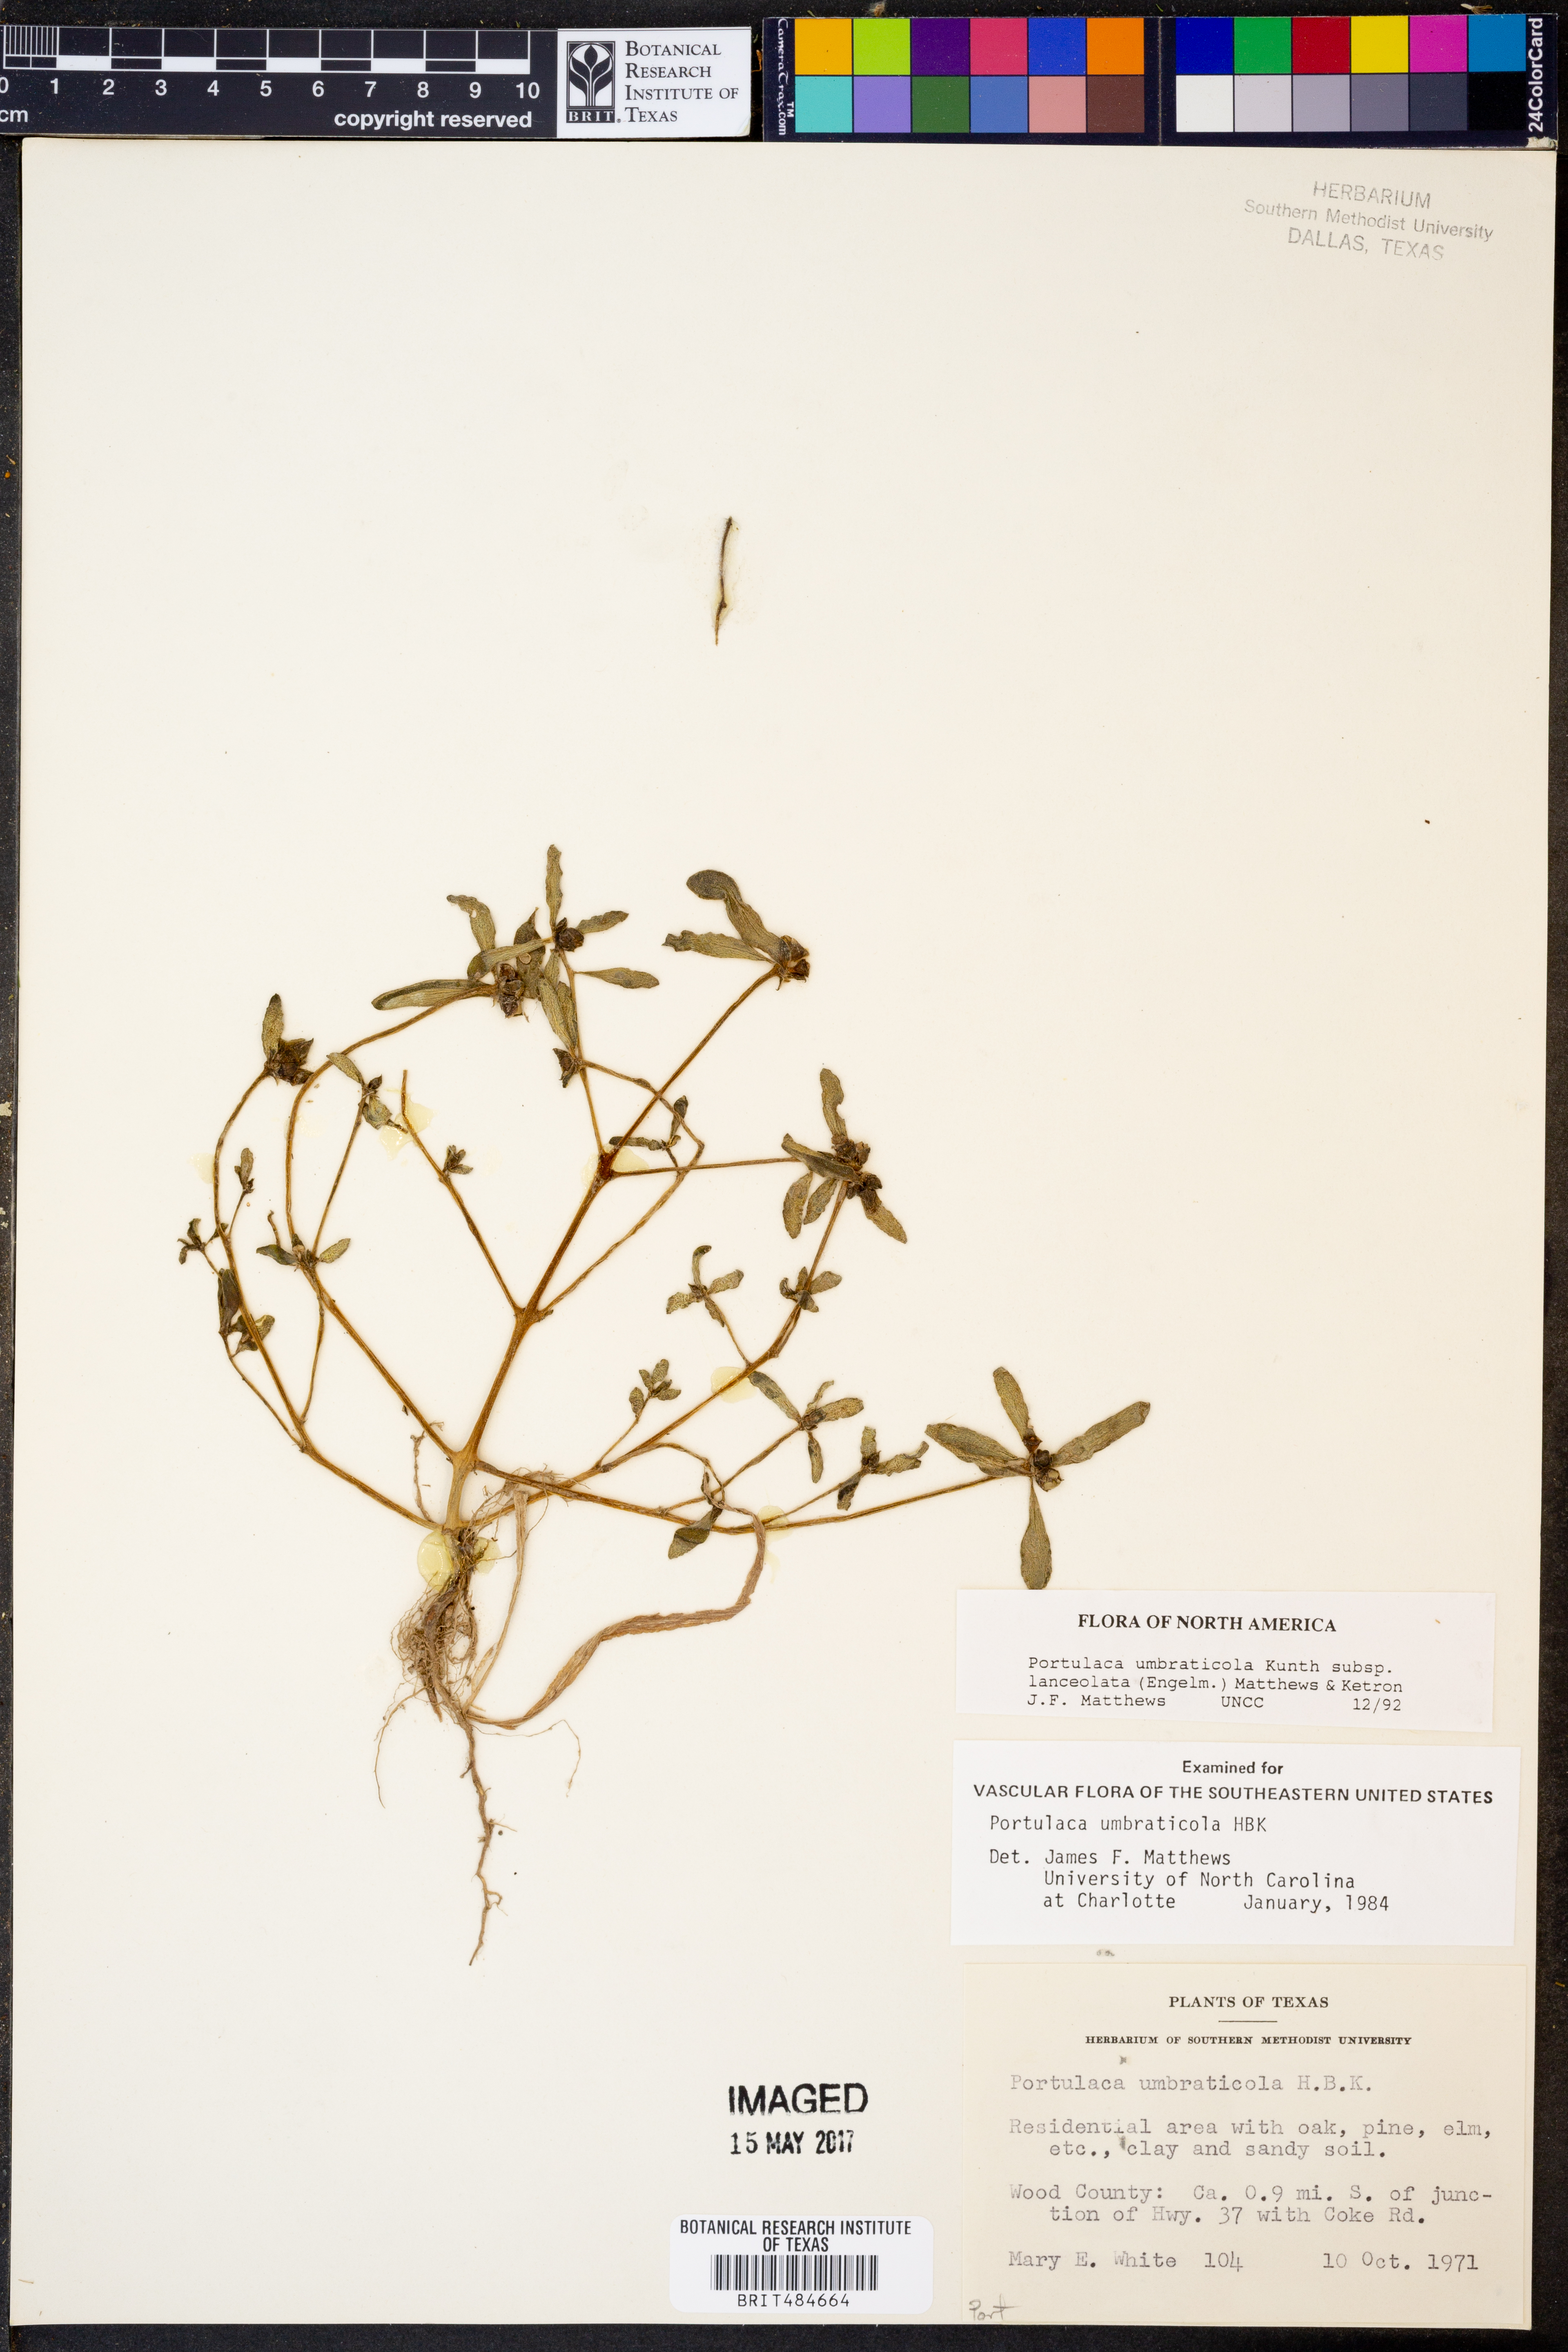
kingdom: Plantae
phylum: Tracheophyta
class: Magnoliopsida
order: Caryophyllales
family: Portulacaceae
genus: Portulaca
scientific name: Portulaca umbraticola
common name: Wingpod purslane
